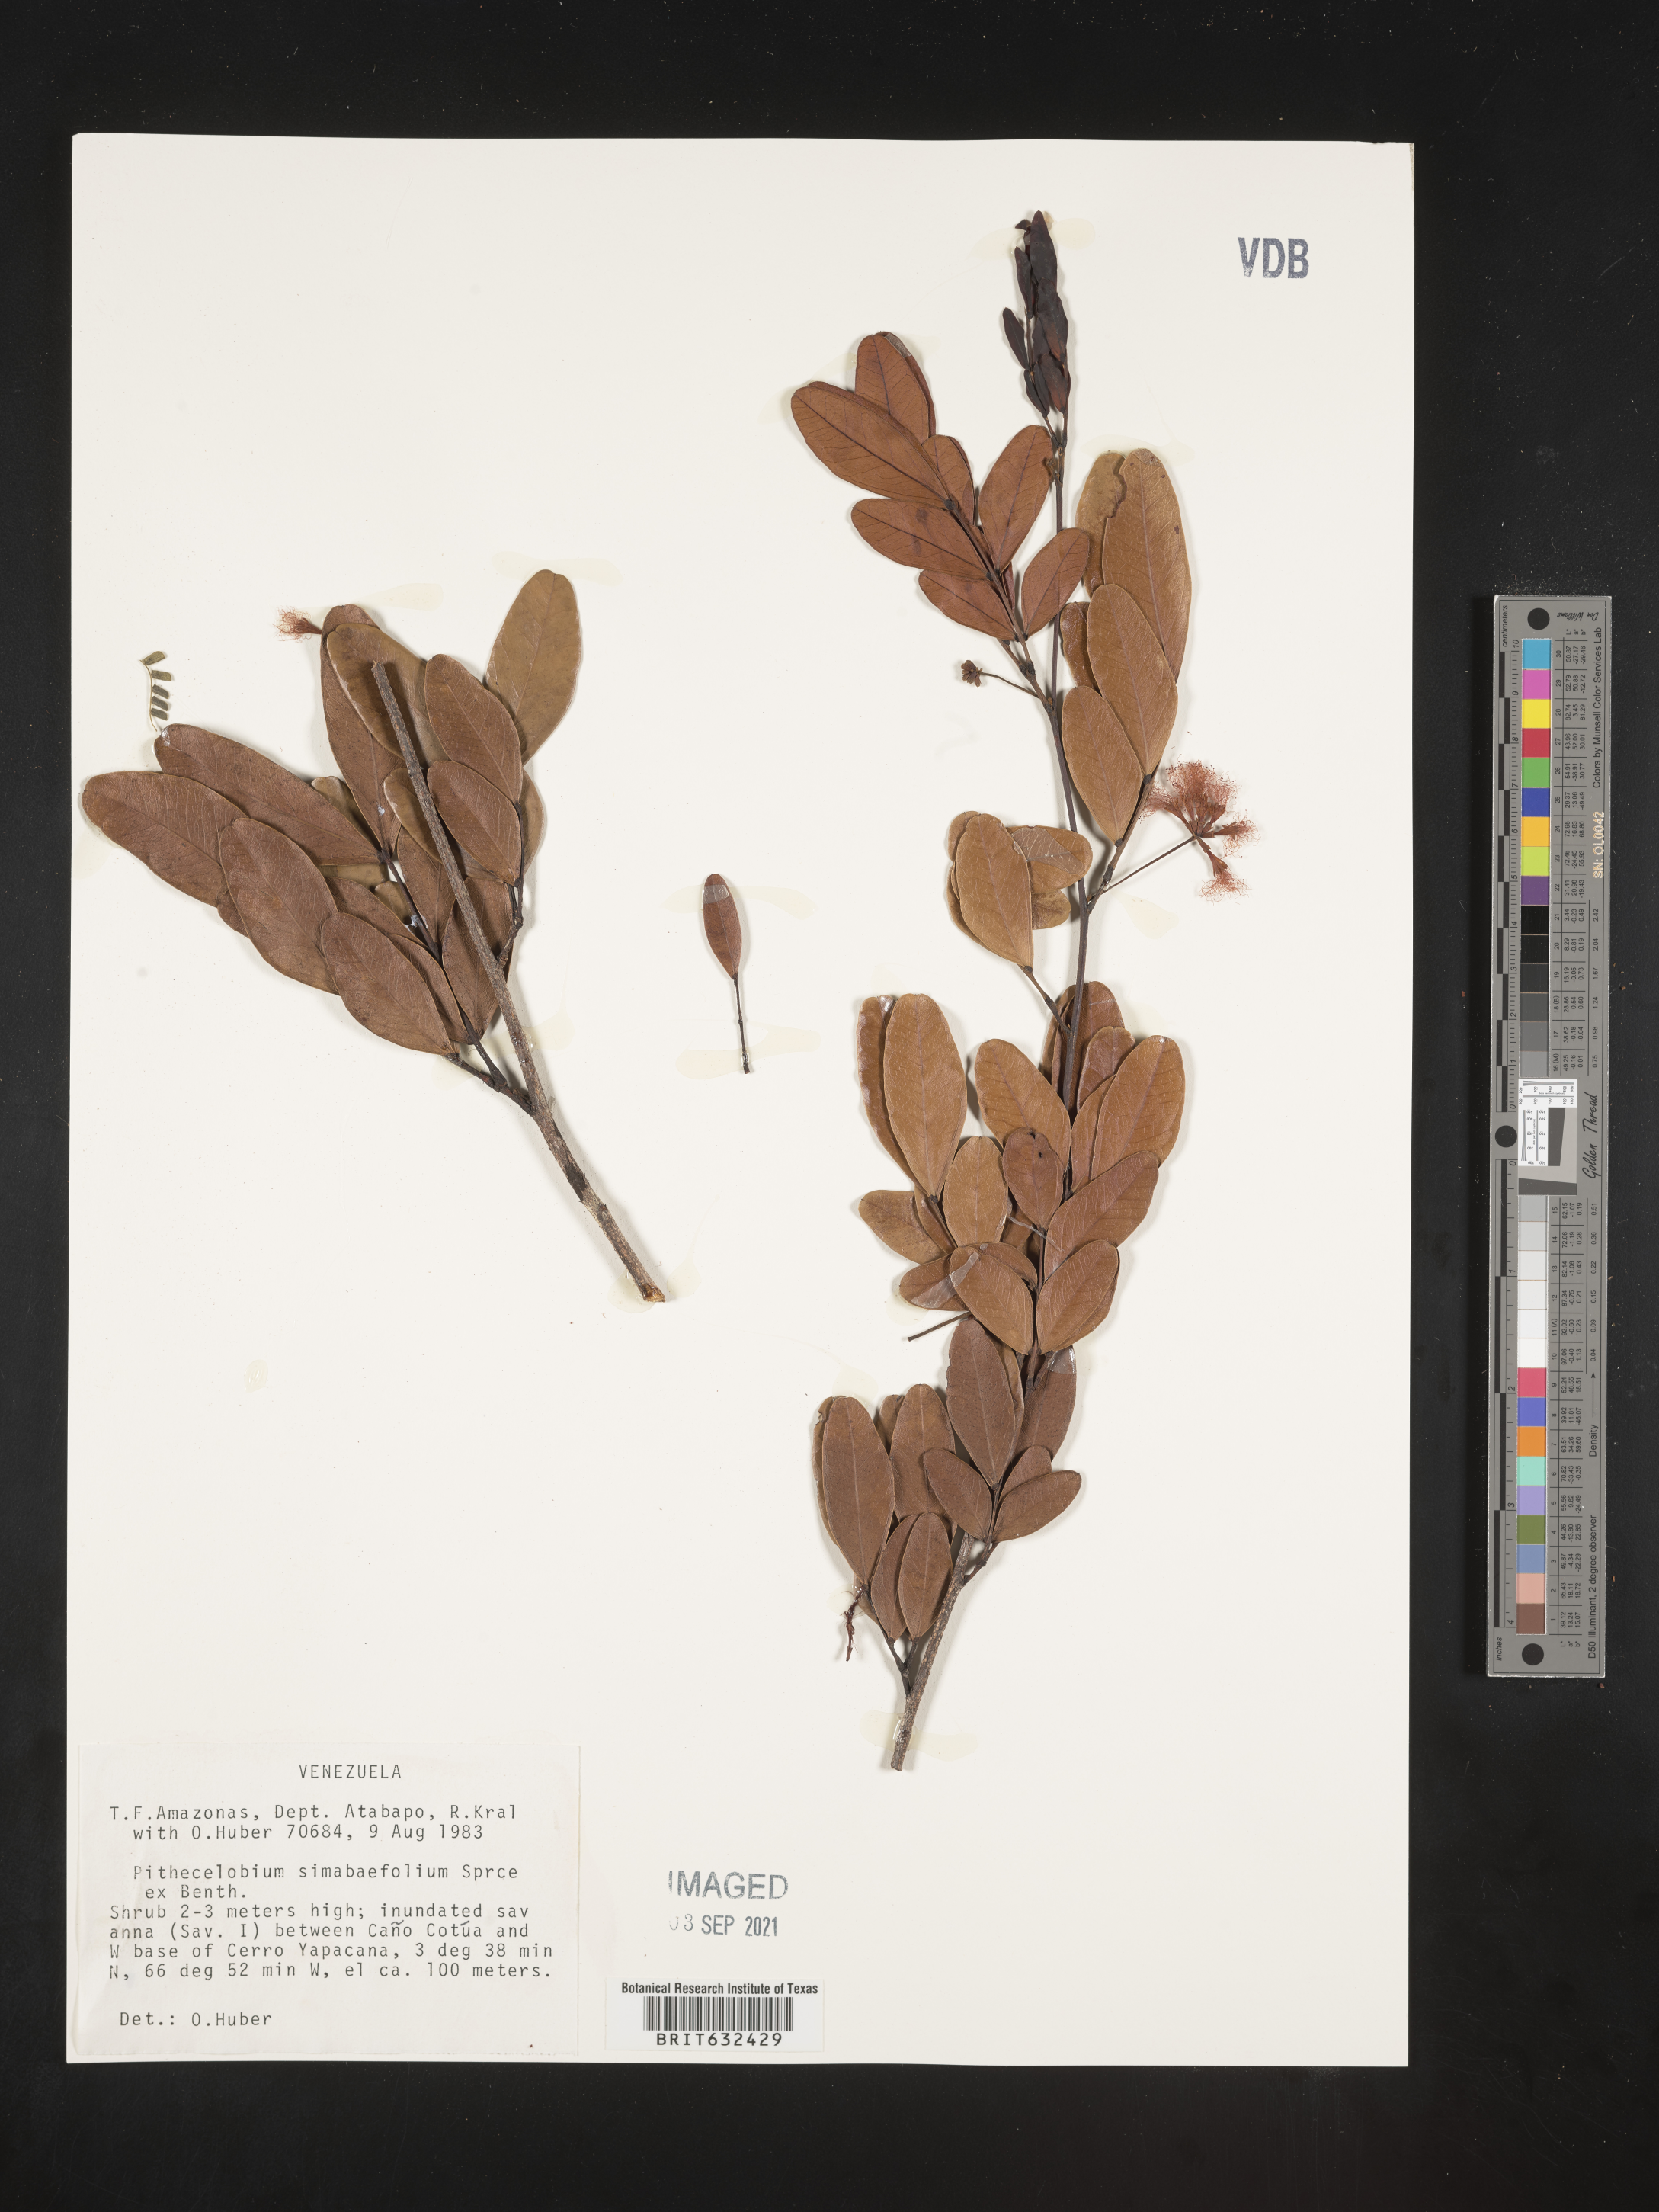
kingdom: Plantae
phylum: Tracheophyta
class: Magnoliopsida
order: Fabales
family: Fabaceae
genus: Pithecellobium
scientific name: Pithecellobium
